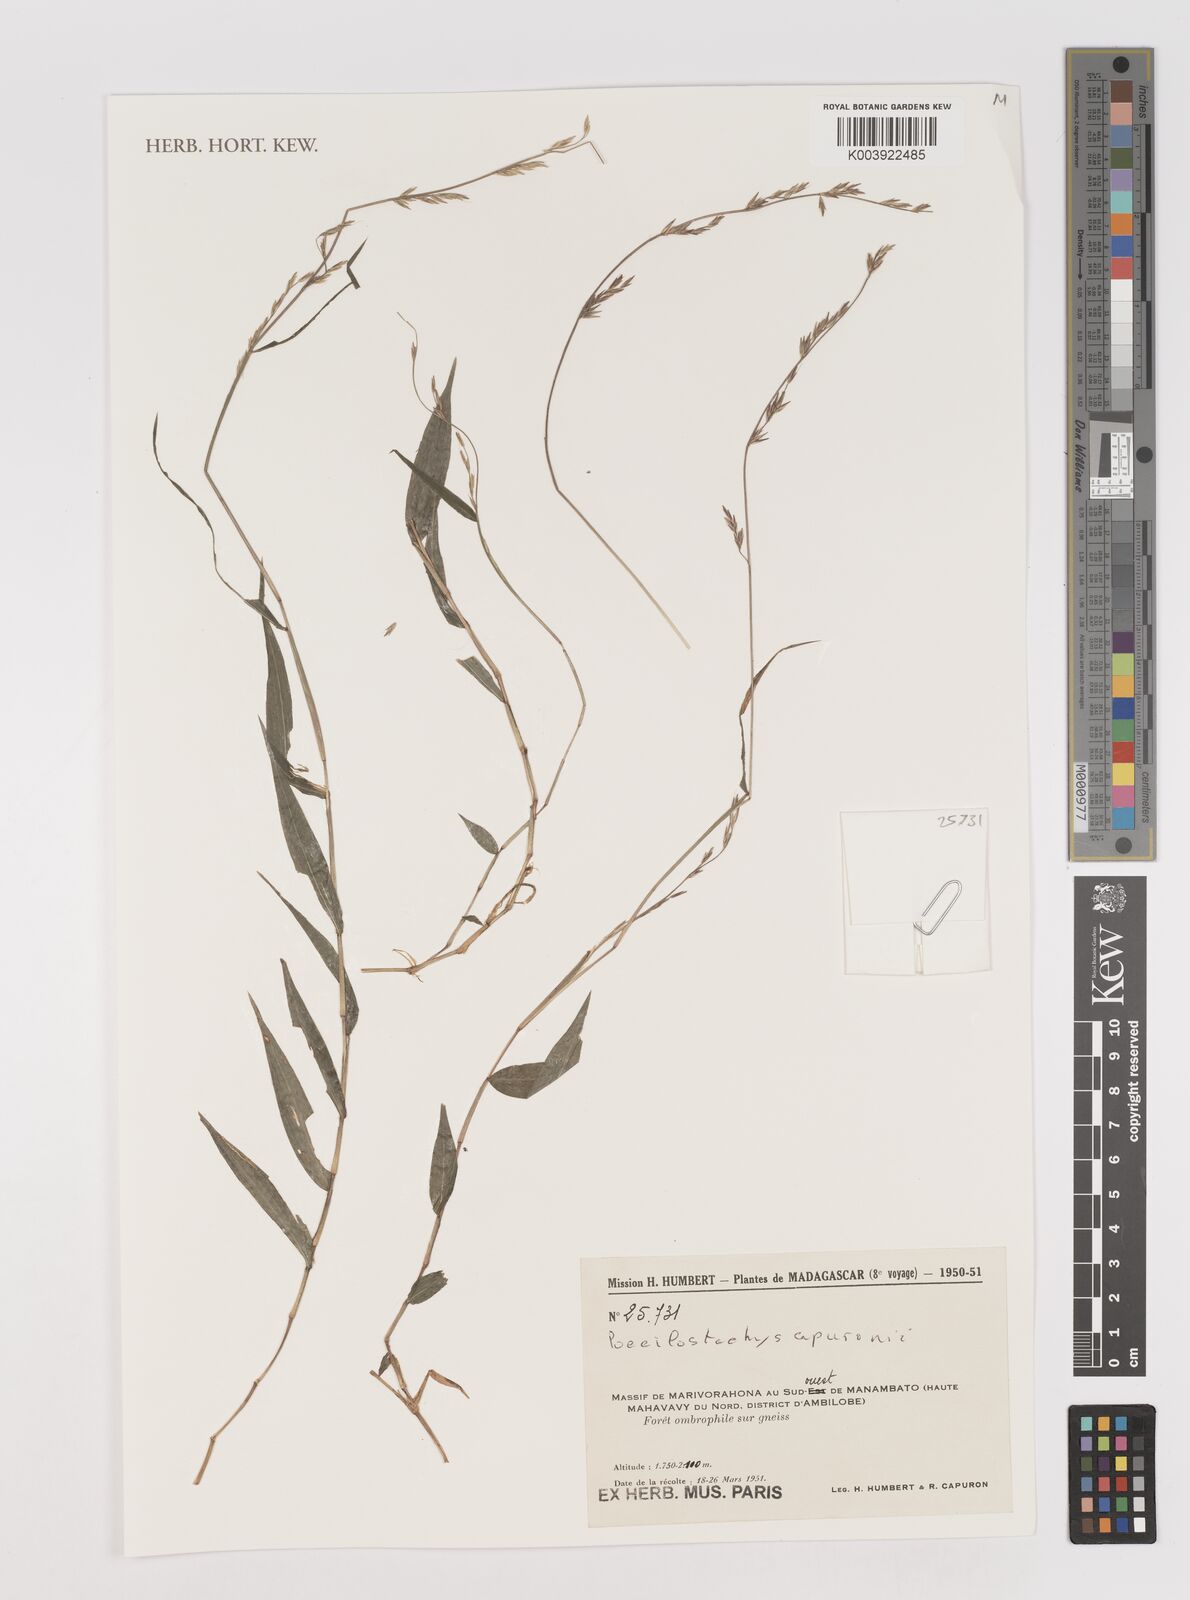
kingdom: Plantae
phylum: Tracheophyta
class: Liliopsida
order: Poales
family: Poaceae
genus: Poecilostachys
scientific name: Poecilostachys hildebrandtii
